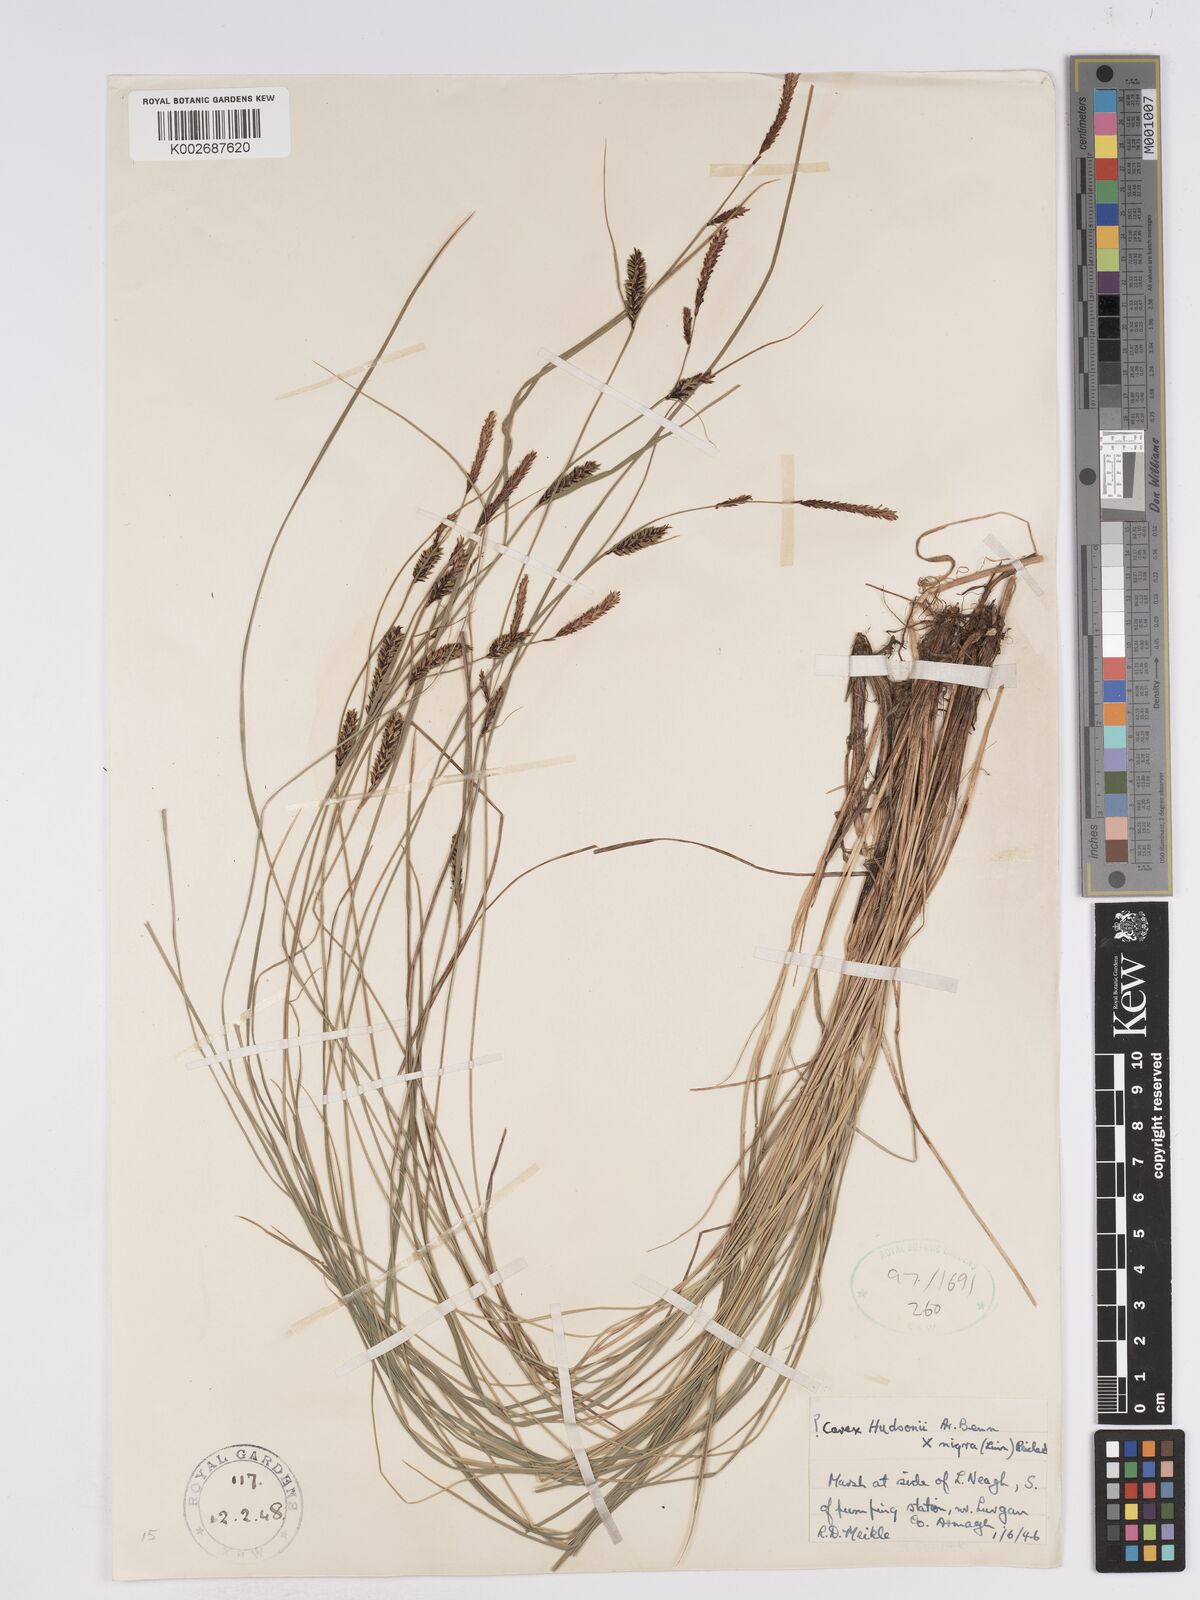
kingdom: Plantae
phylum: Tracheophyta
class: Liliopsida
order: Poales
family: Cyperaceae
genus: Carex
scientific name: Carex
